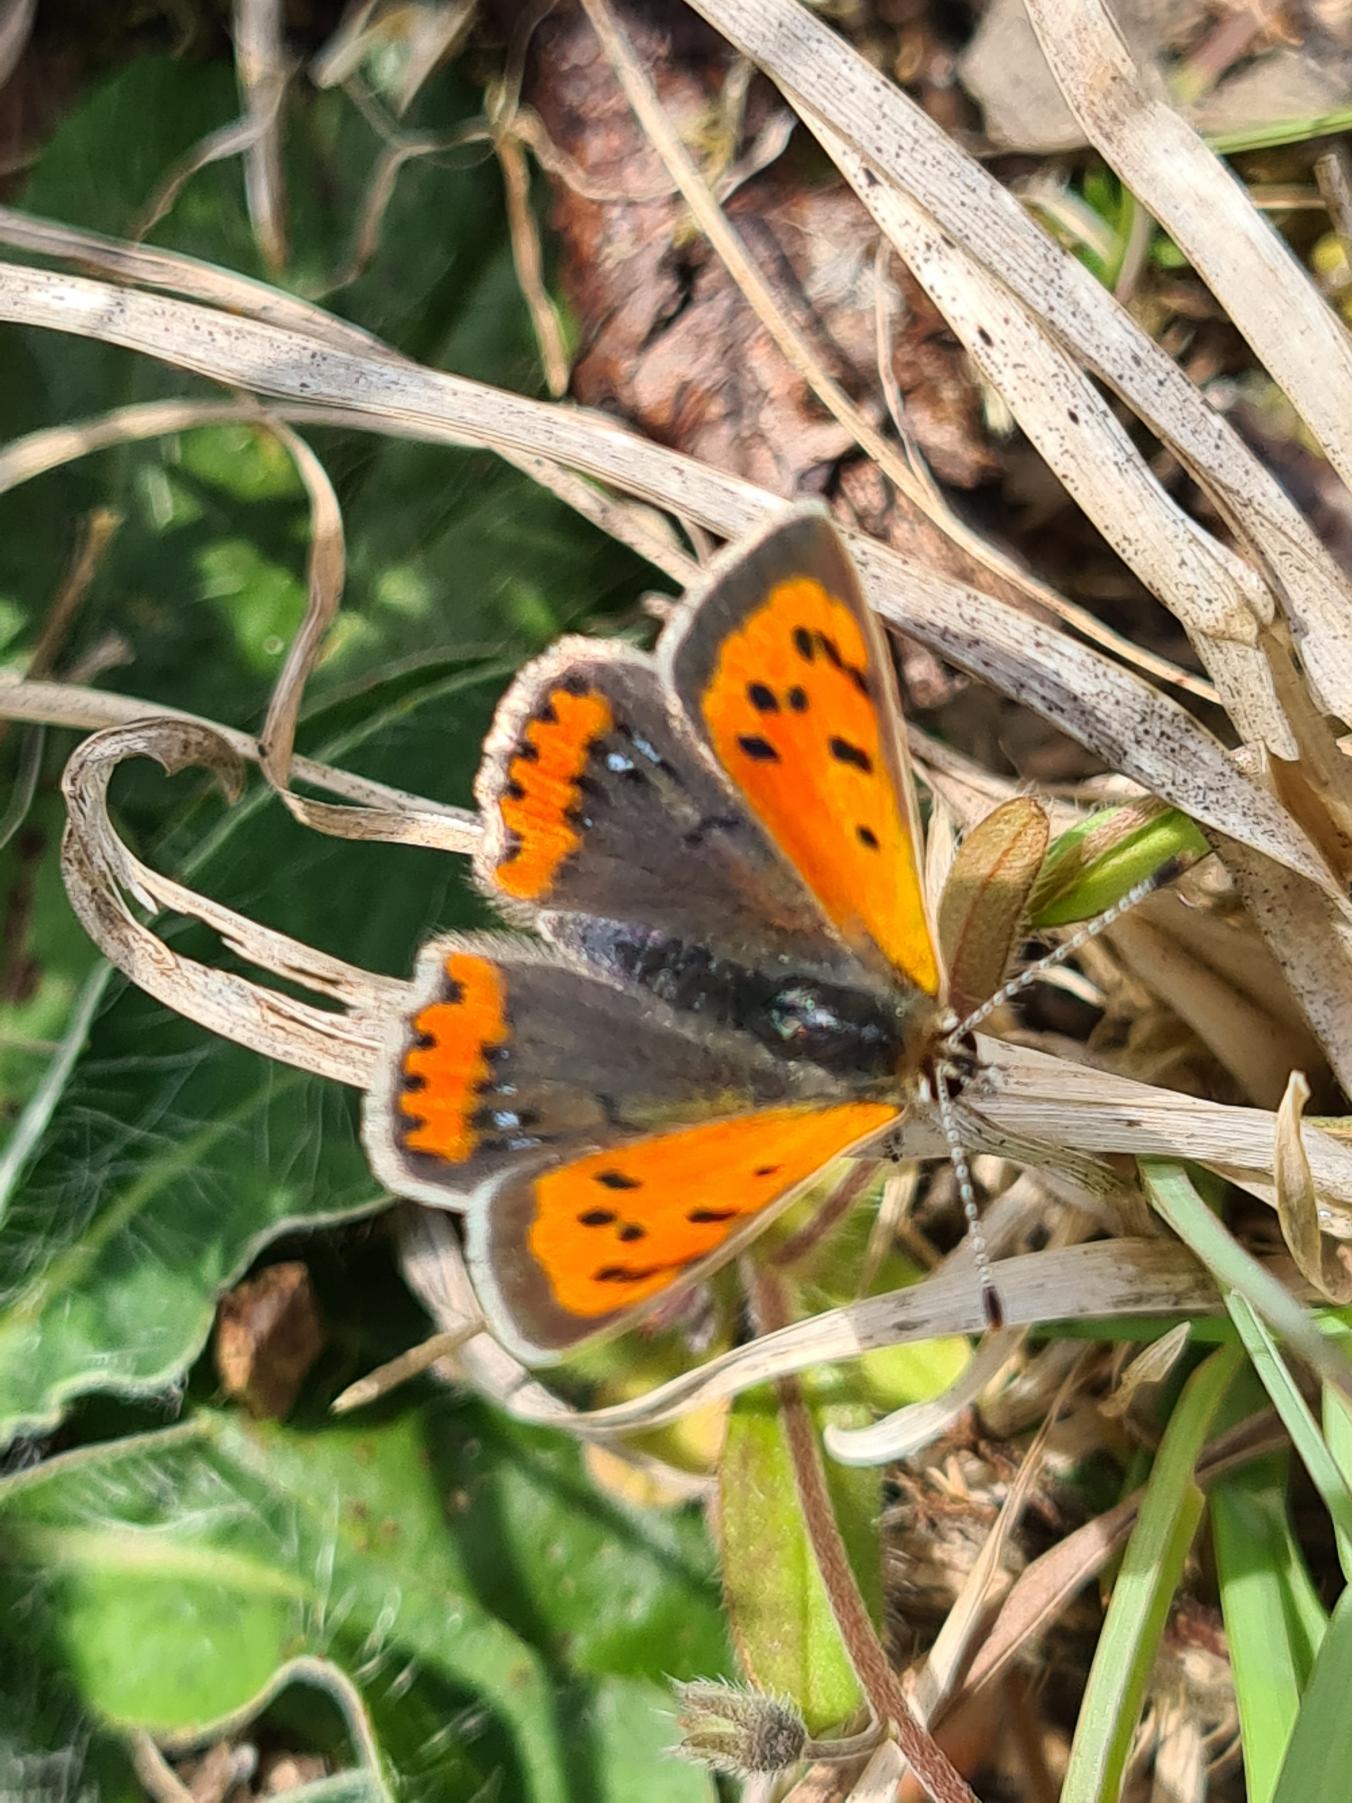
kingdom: Animalia
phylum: Arthropoda
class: Insecta
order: Lepidoptera
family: Lycaenidae
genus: Lycaena
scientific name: Lycaena phlaeas
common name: Lille ildfugl
